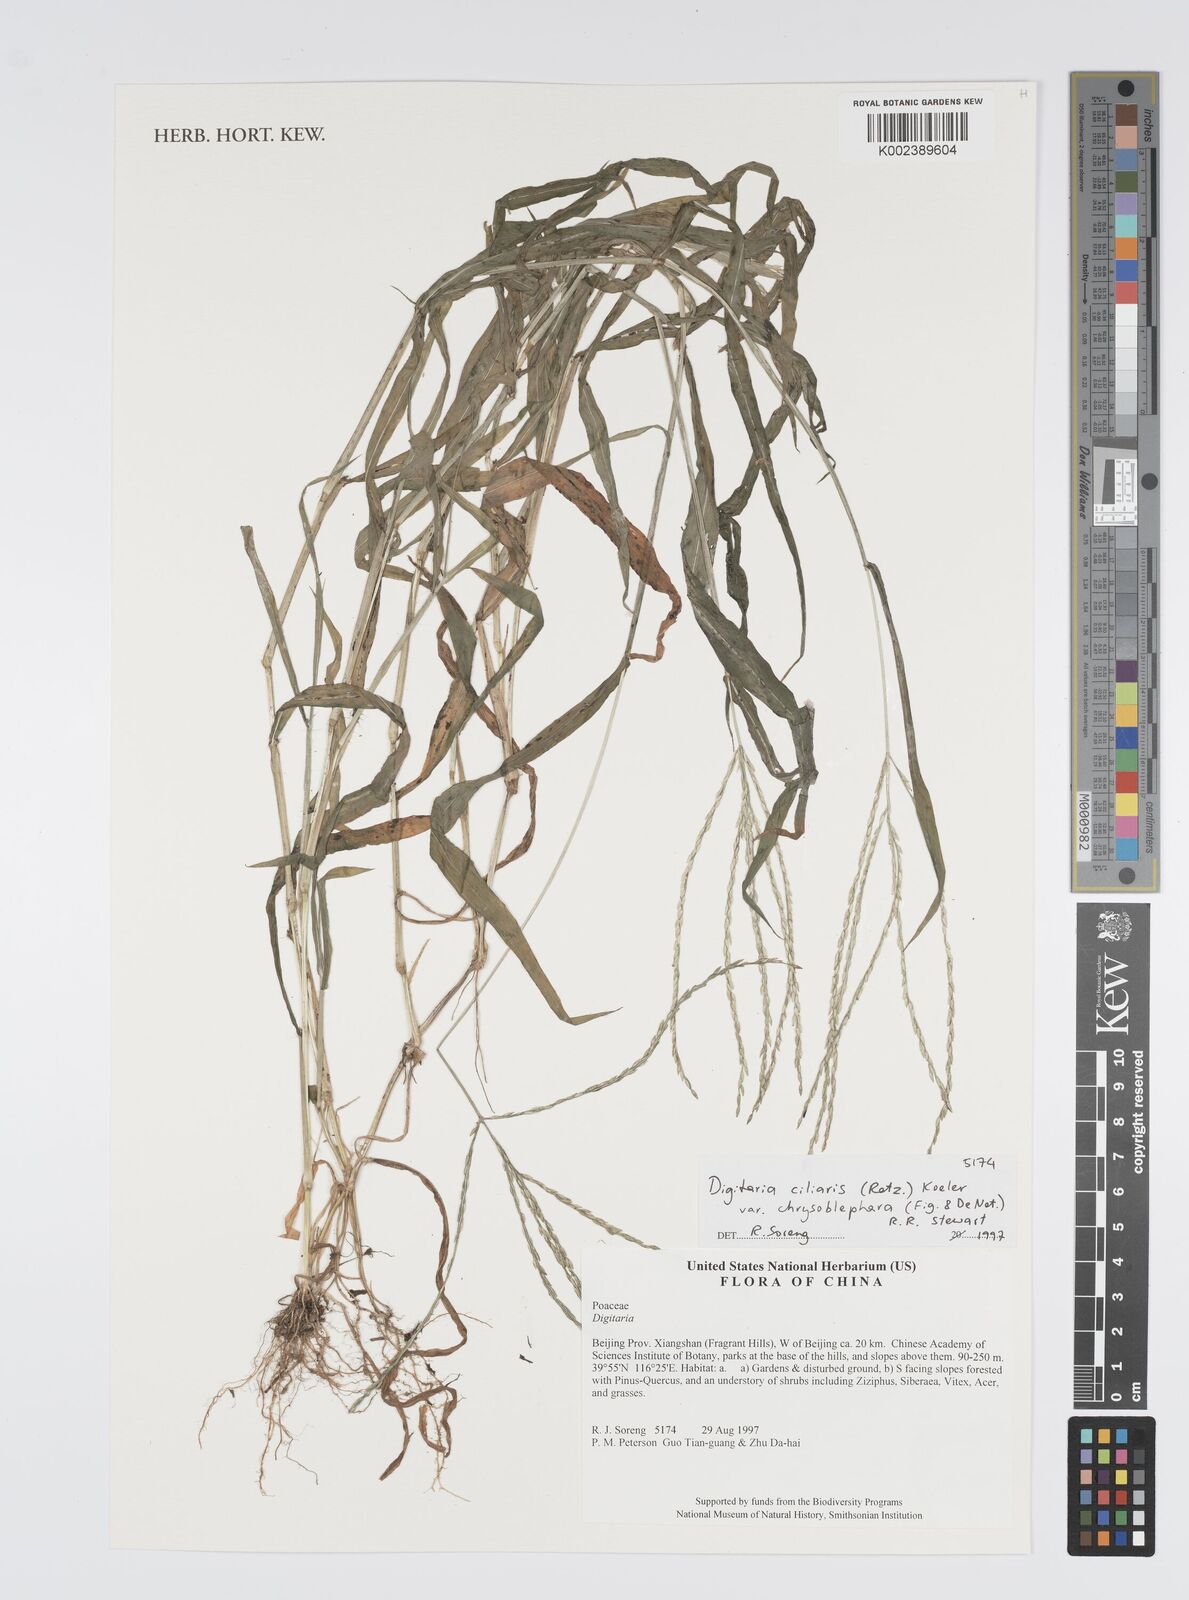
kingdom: Plantae
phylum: Tracheophyta
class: Liliopsida
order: Poales
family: Poaceae
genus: Digitaria
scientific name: Digitaria ciliaris
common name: Tropical finger-grass
